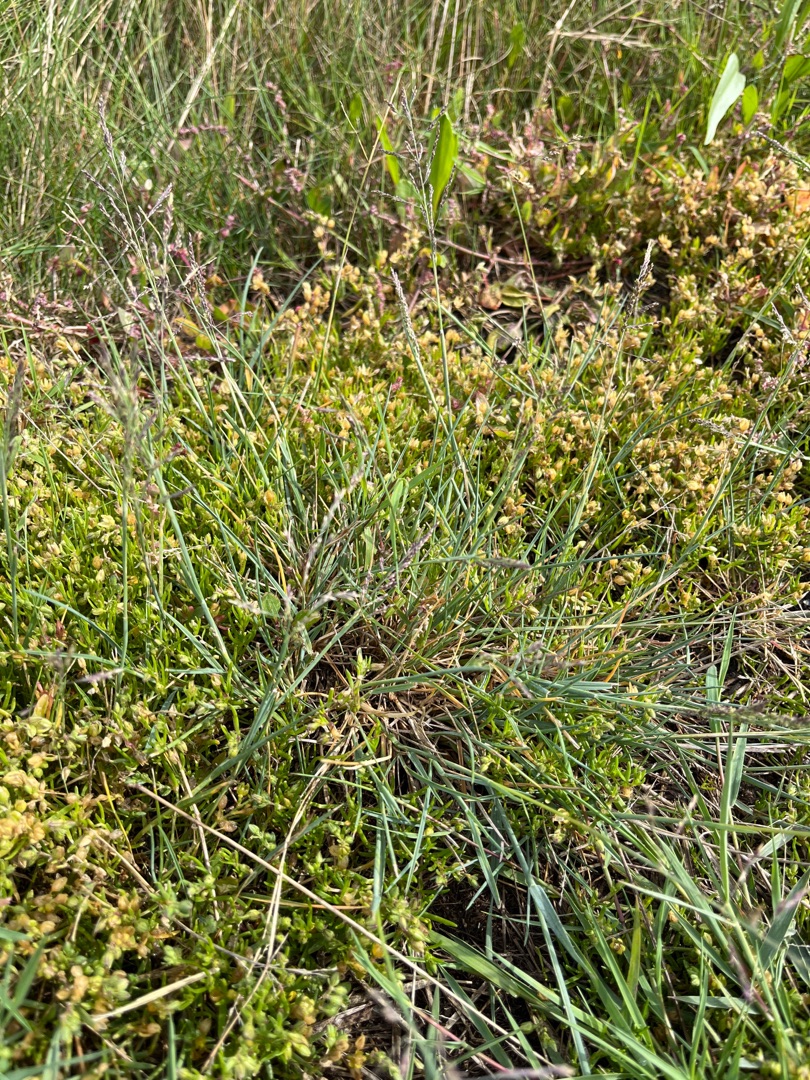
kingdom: Plantae
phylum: Tracheophyta
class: Liliopsida
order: Poales
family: Poaceae
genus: Puccinellia
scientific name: Puccinellia distans
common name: Udspærret annelgræs
